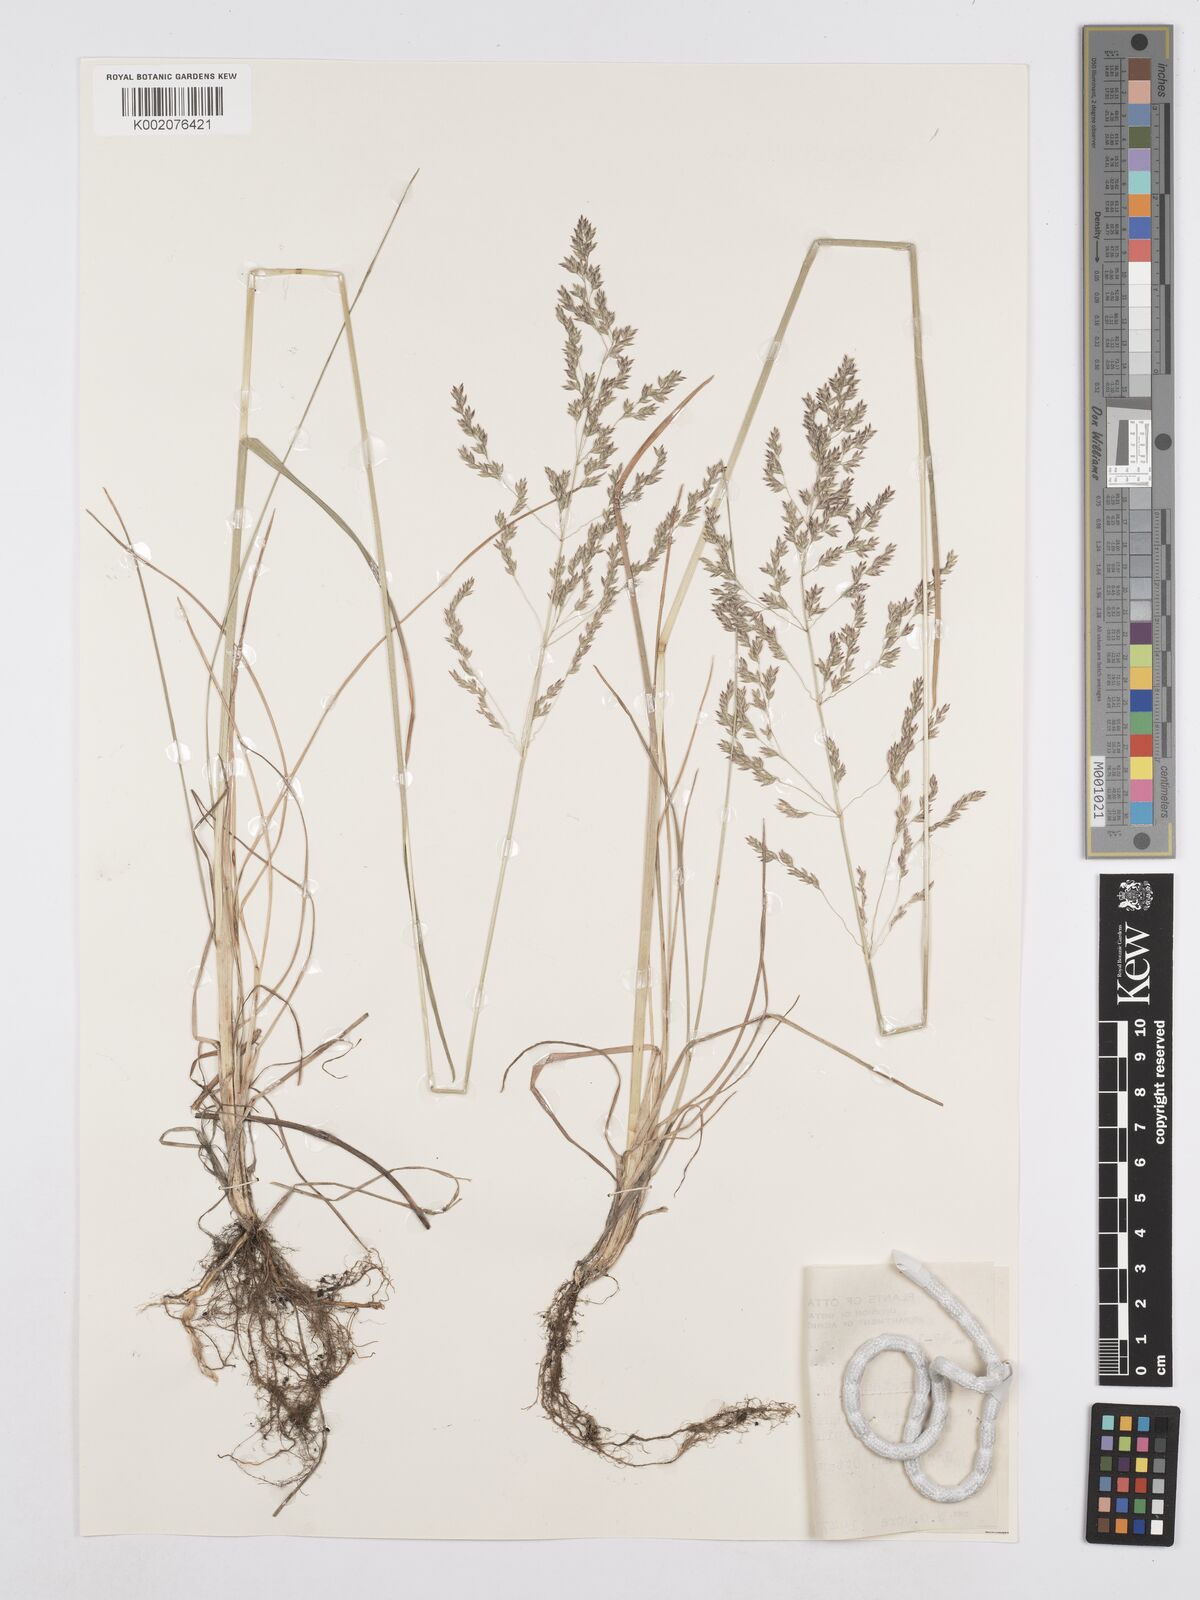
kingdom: Plantae
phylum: Tracheophyta
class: Liliopsida
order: Poales
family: Poaceae
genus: Poa
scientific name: Poa angustifolia
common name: Narrow-leaved meadow-grass
